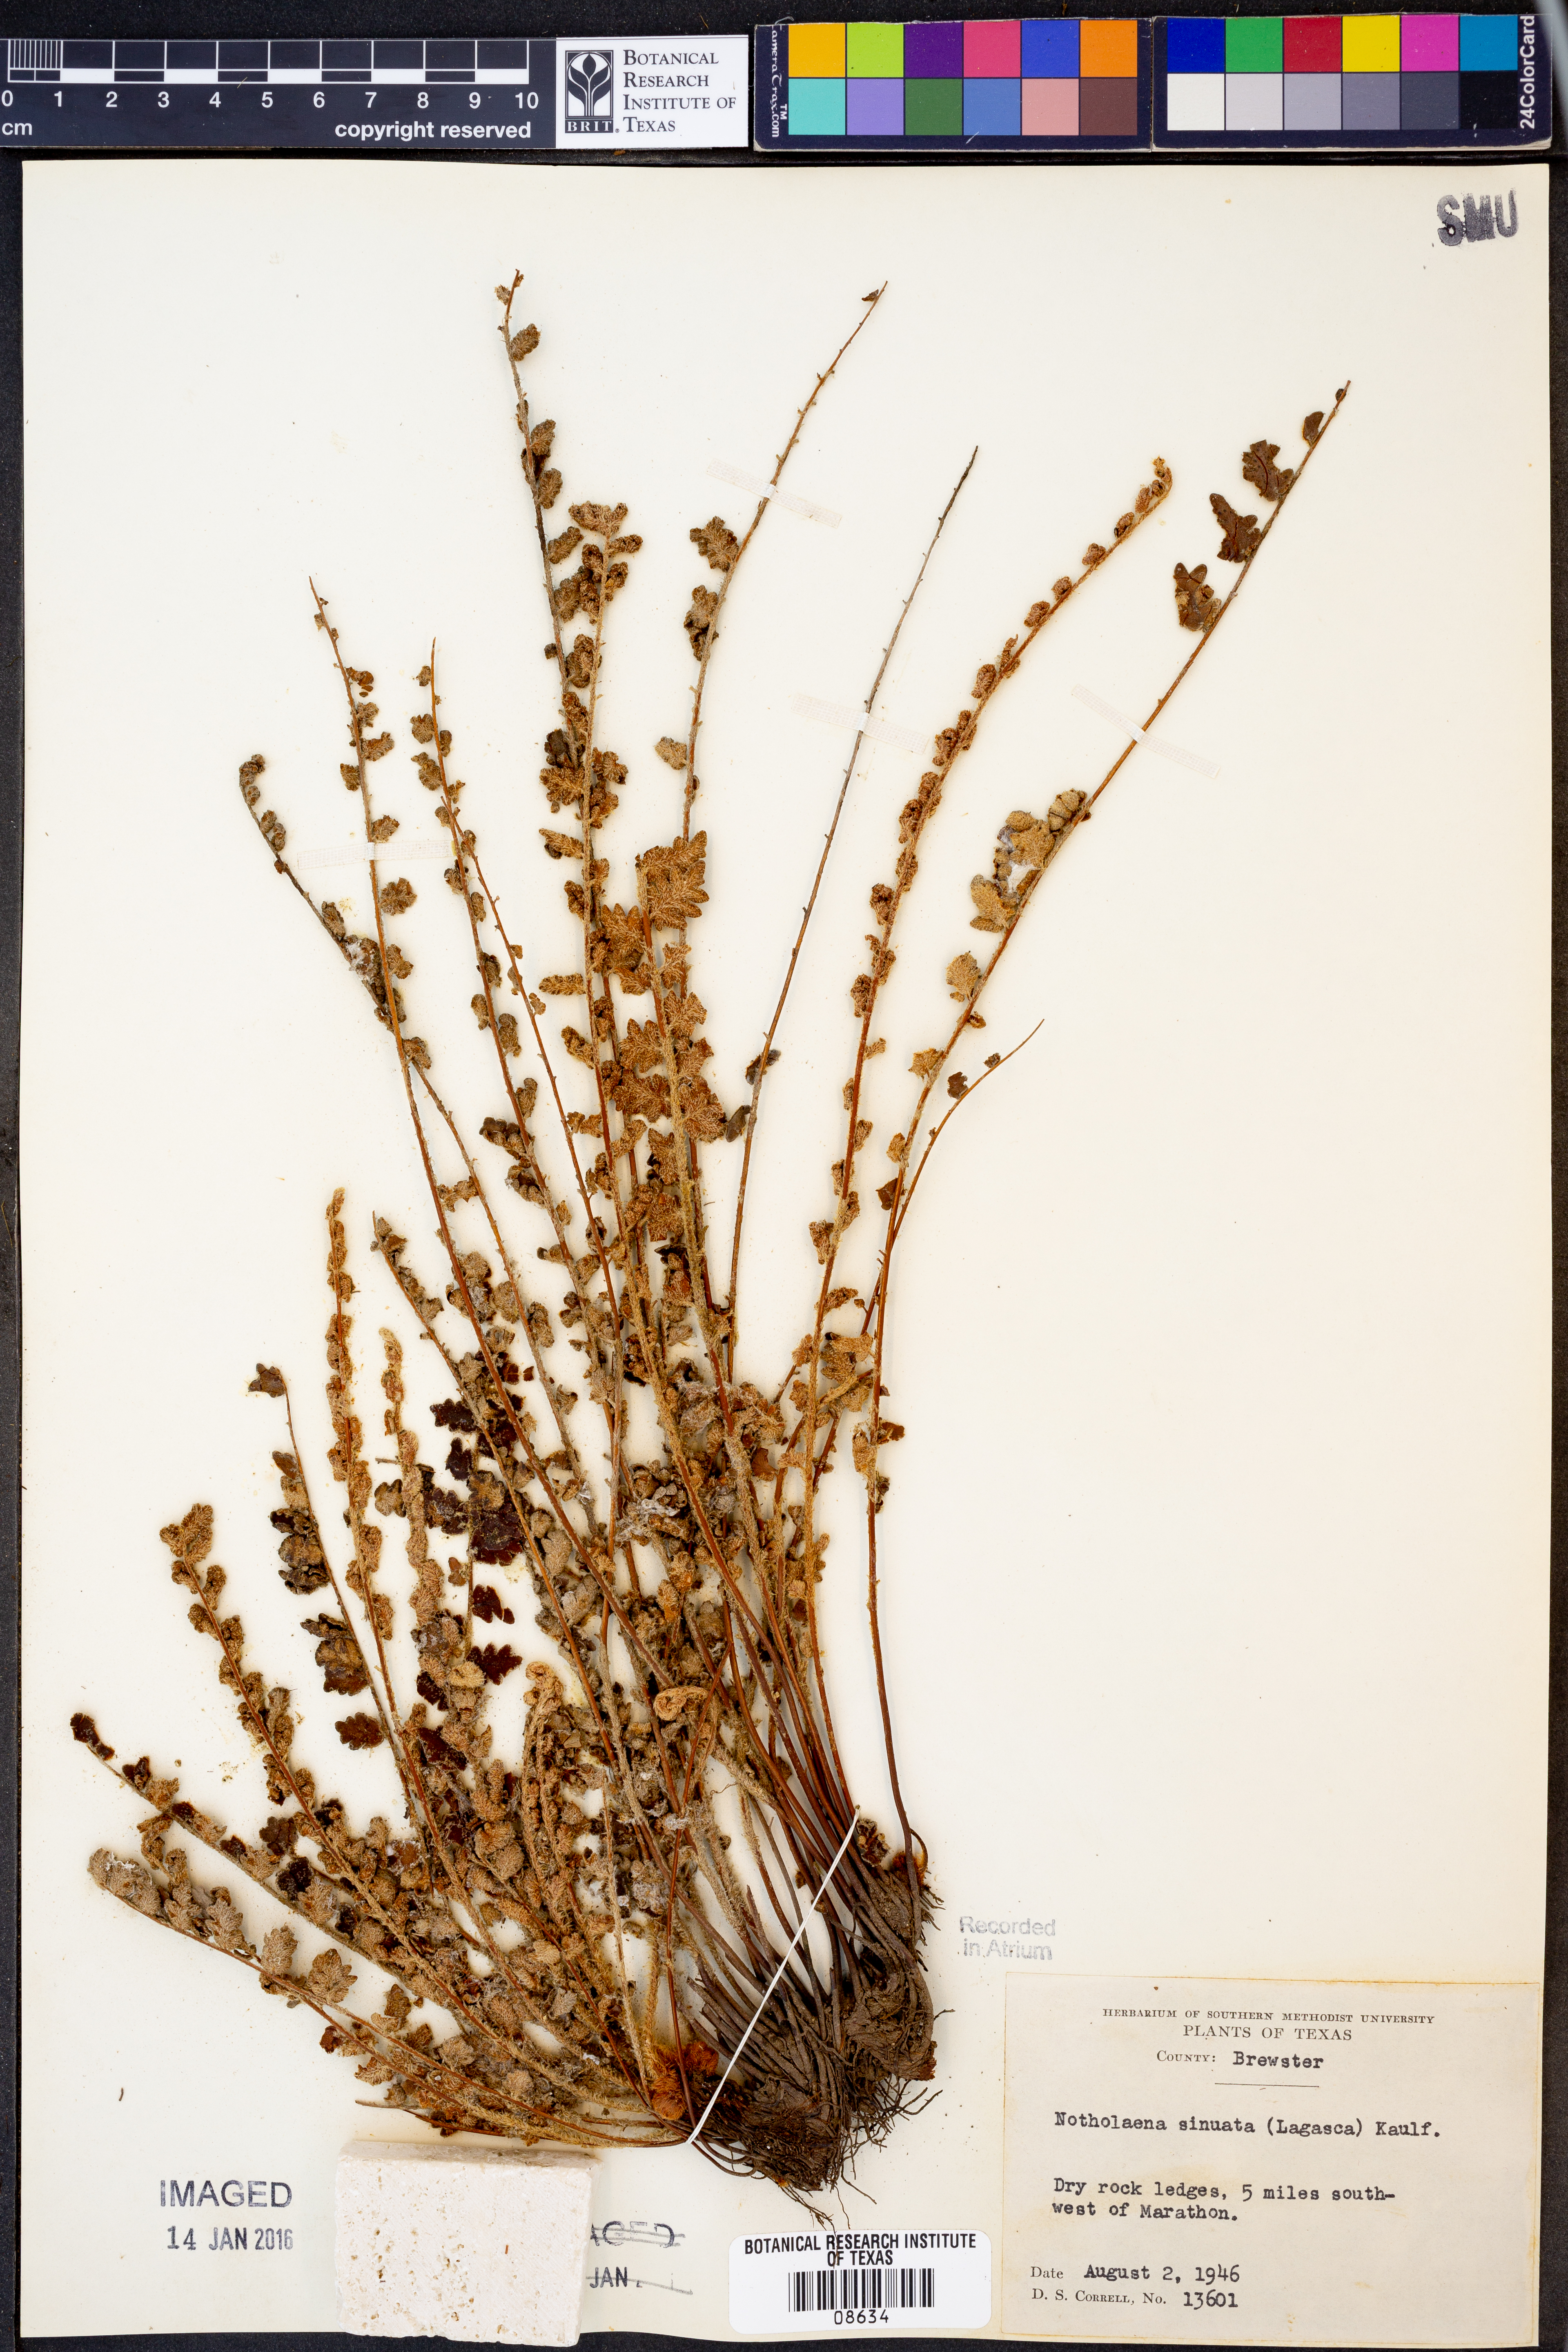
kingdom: Plantae
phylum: Tracheophyta
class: Polypodiopsida
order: Polypodiales
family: Pteridaceae
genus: Astrolepis
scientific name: Astrolepis sinuata
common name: Wavy scaly cloakfern
